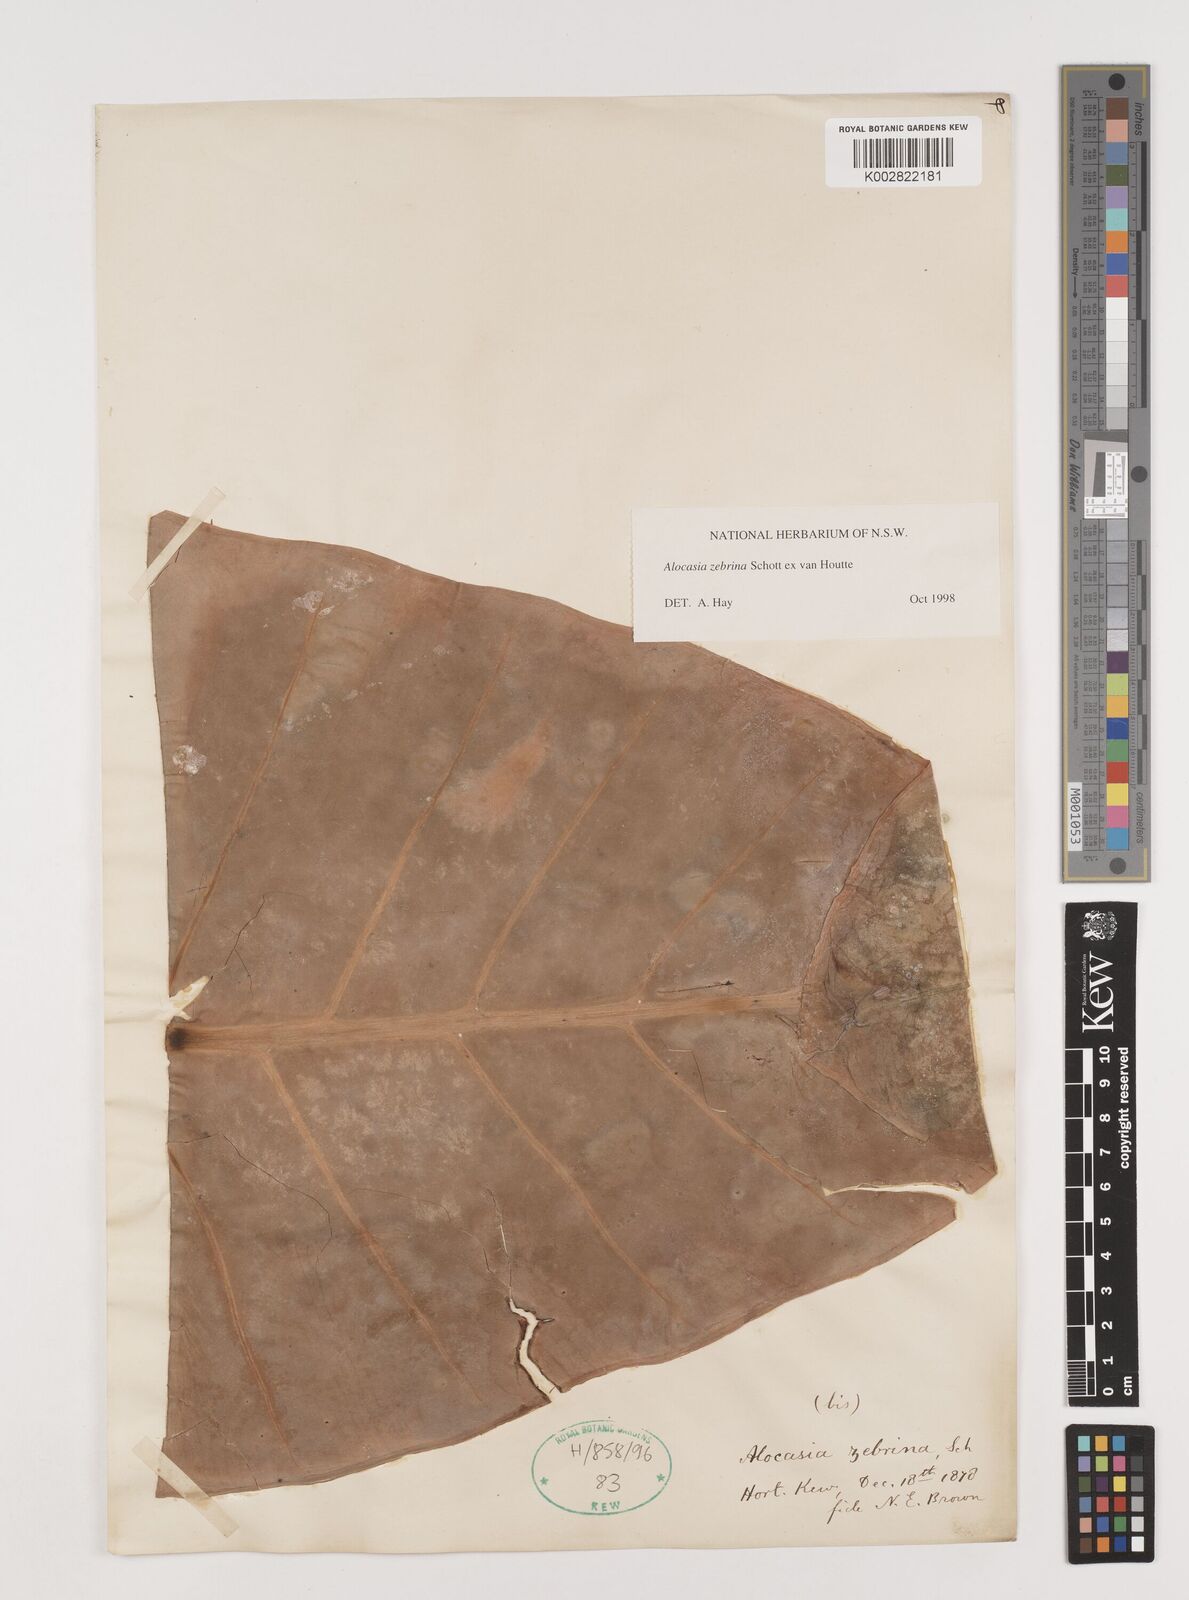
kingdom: Plantae
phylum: Tracheophyta
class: Liliopsida
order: Alismatales
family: Araceae
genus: Alocasia
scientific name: Alocasia zebrina
